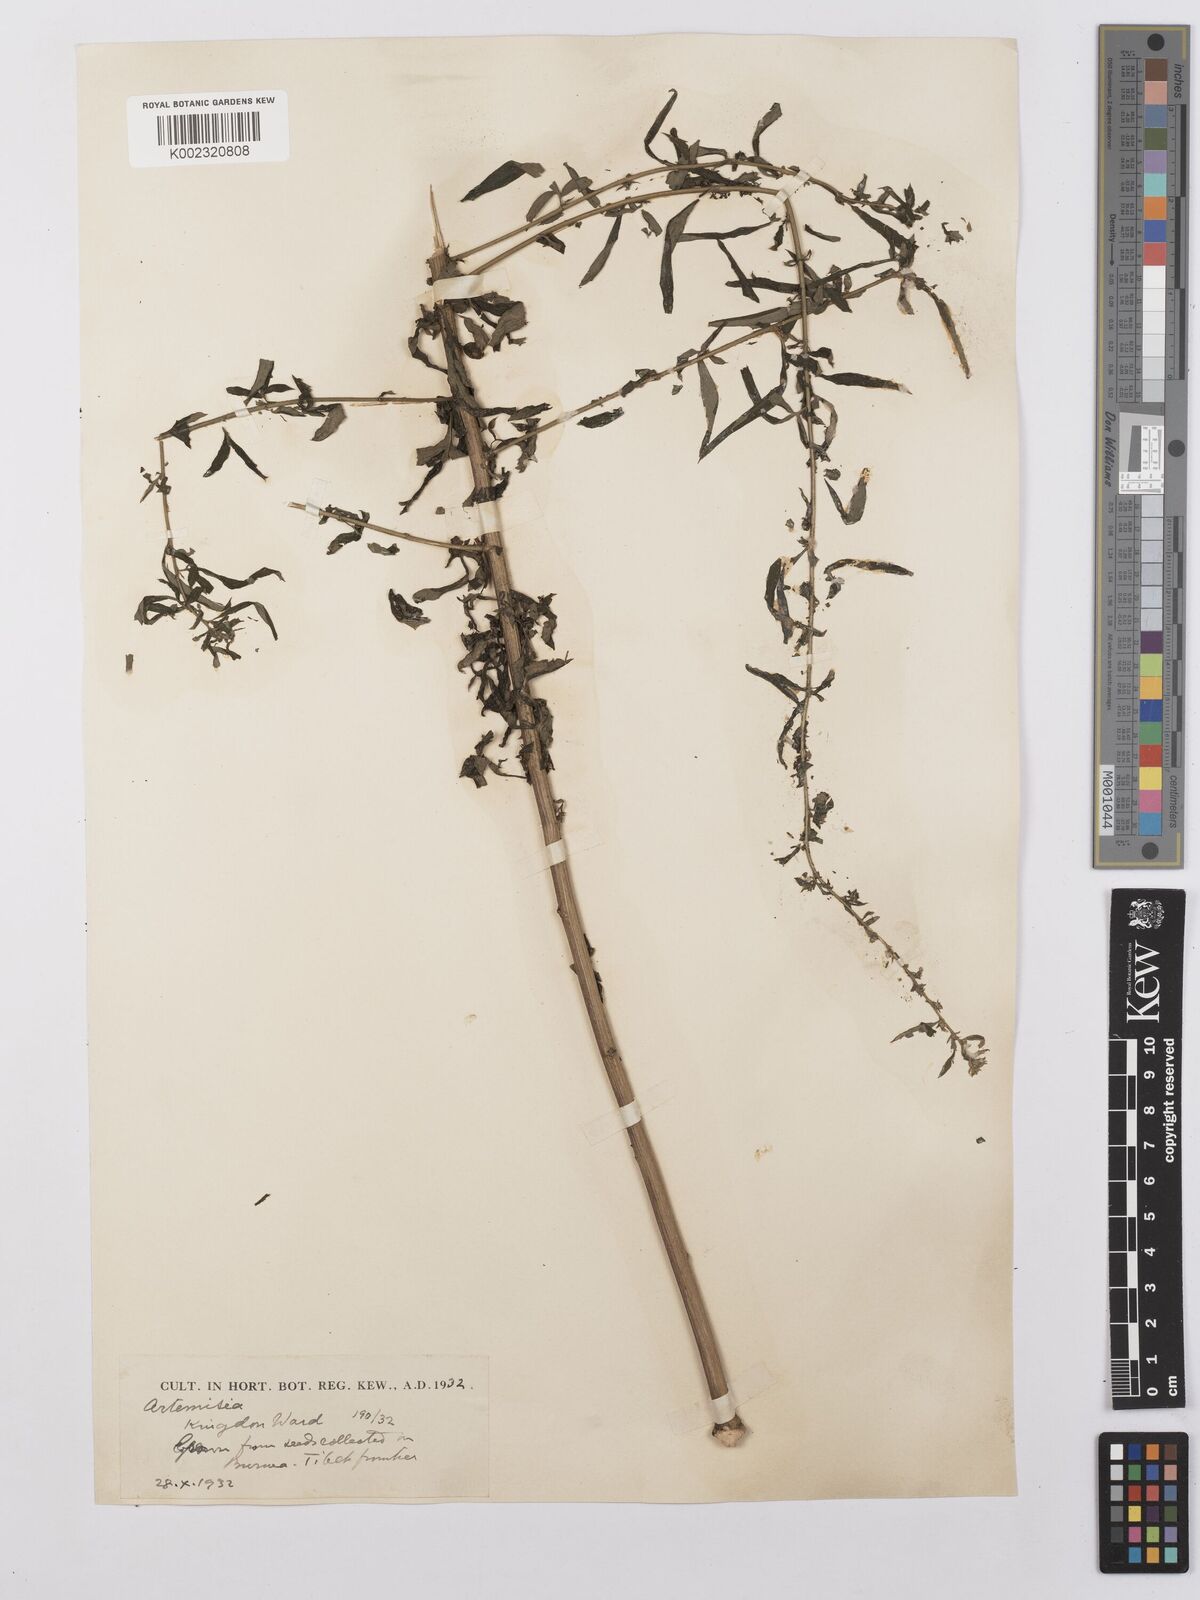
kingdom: Plantae
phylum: Tracheophyta
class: Magnoliopsida
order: Asterales
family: Asteraceae
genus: Artemisia
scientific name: Artemisia dubia
